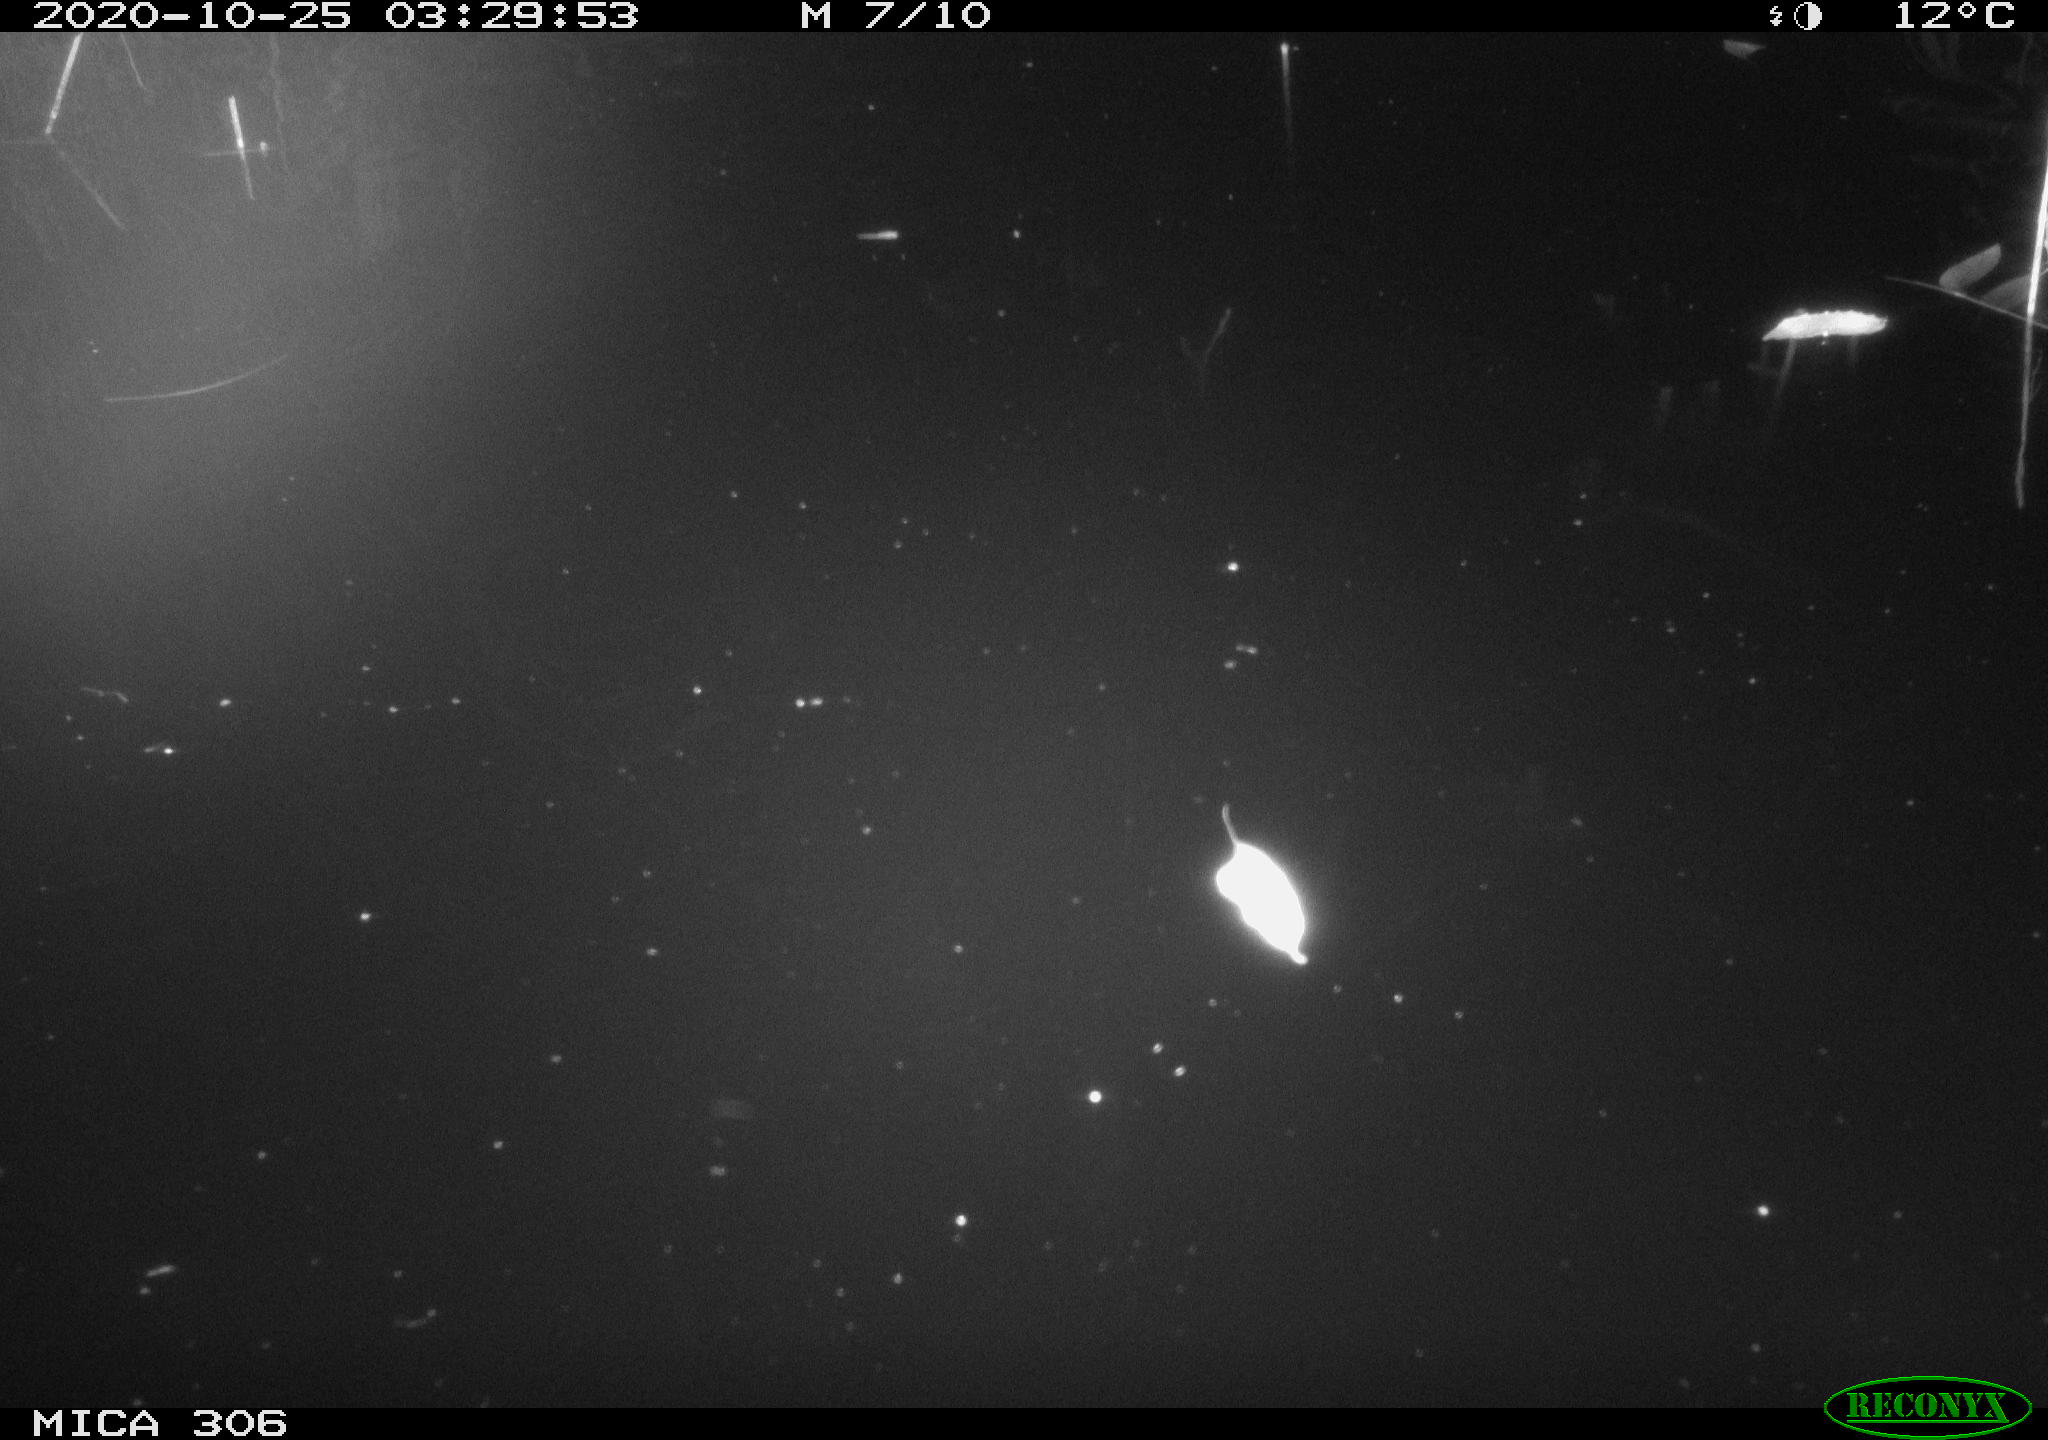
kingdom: Animalia
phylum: Chordata
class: Mammalia
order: Rodentia
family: Muridae
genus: Rattus
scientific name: Rattus norvegicus
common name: Brown rat
